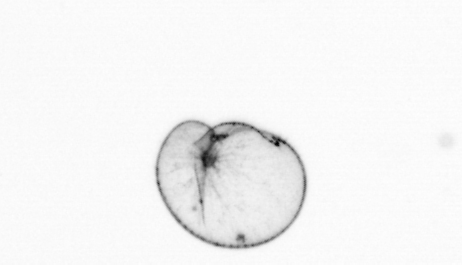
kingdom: Chromista
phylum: Myzozoa
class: Dinophyceae
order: Noctilucales
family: Noctilucaceae
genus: Noctiluca
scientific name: Noctiluca scintillans
